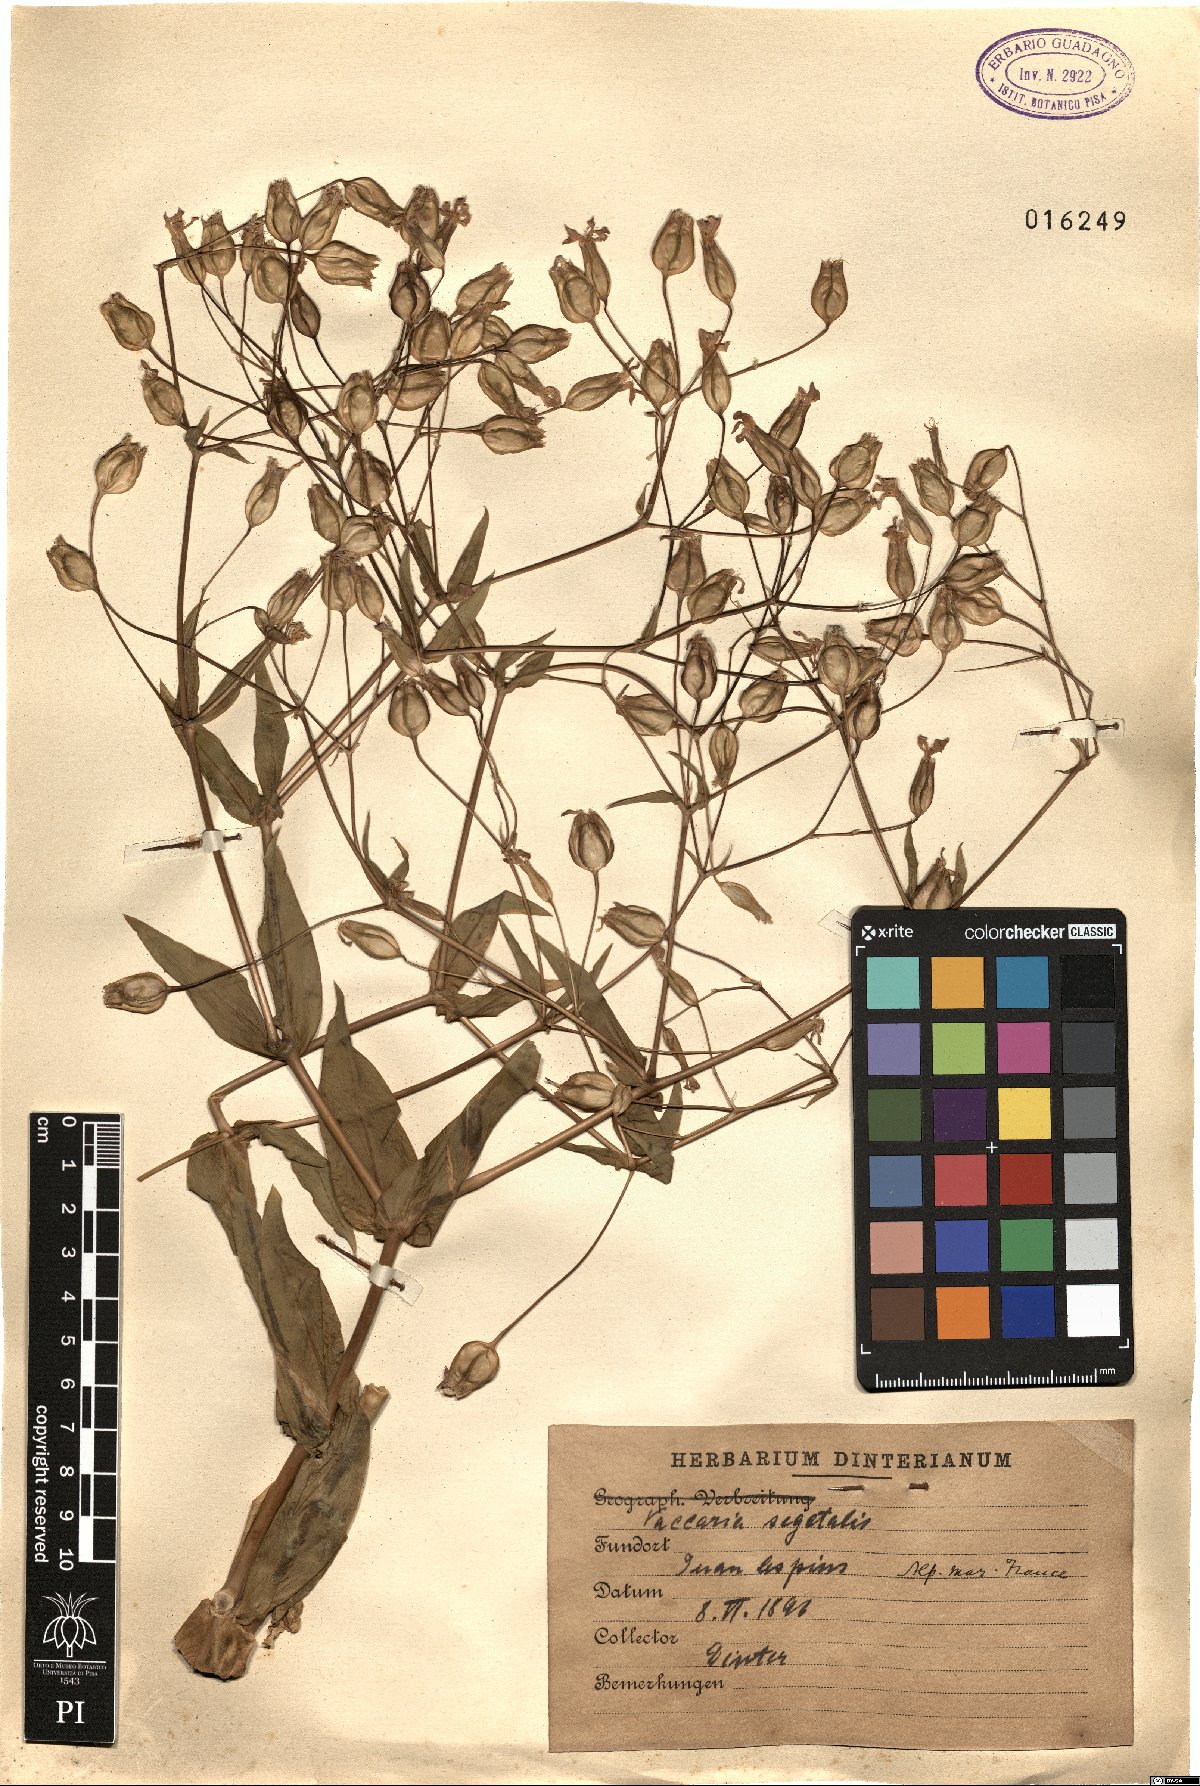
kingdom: Plantae
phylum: Tracheophyta
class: Magnoliopsida
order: Caryophyllales
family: Caryophyllaceae
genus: Gypsophila
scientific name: Gypsophila vaccaria
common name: Cow soapwort
